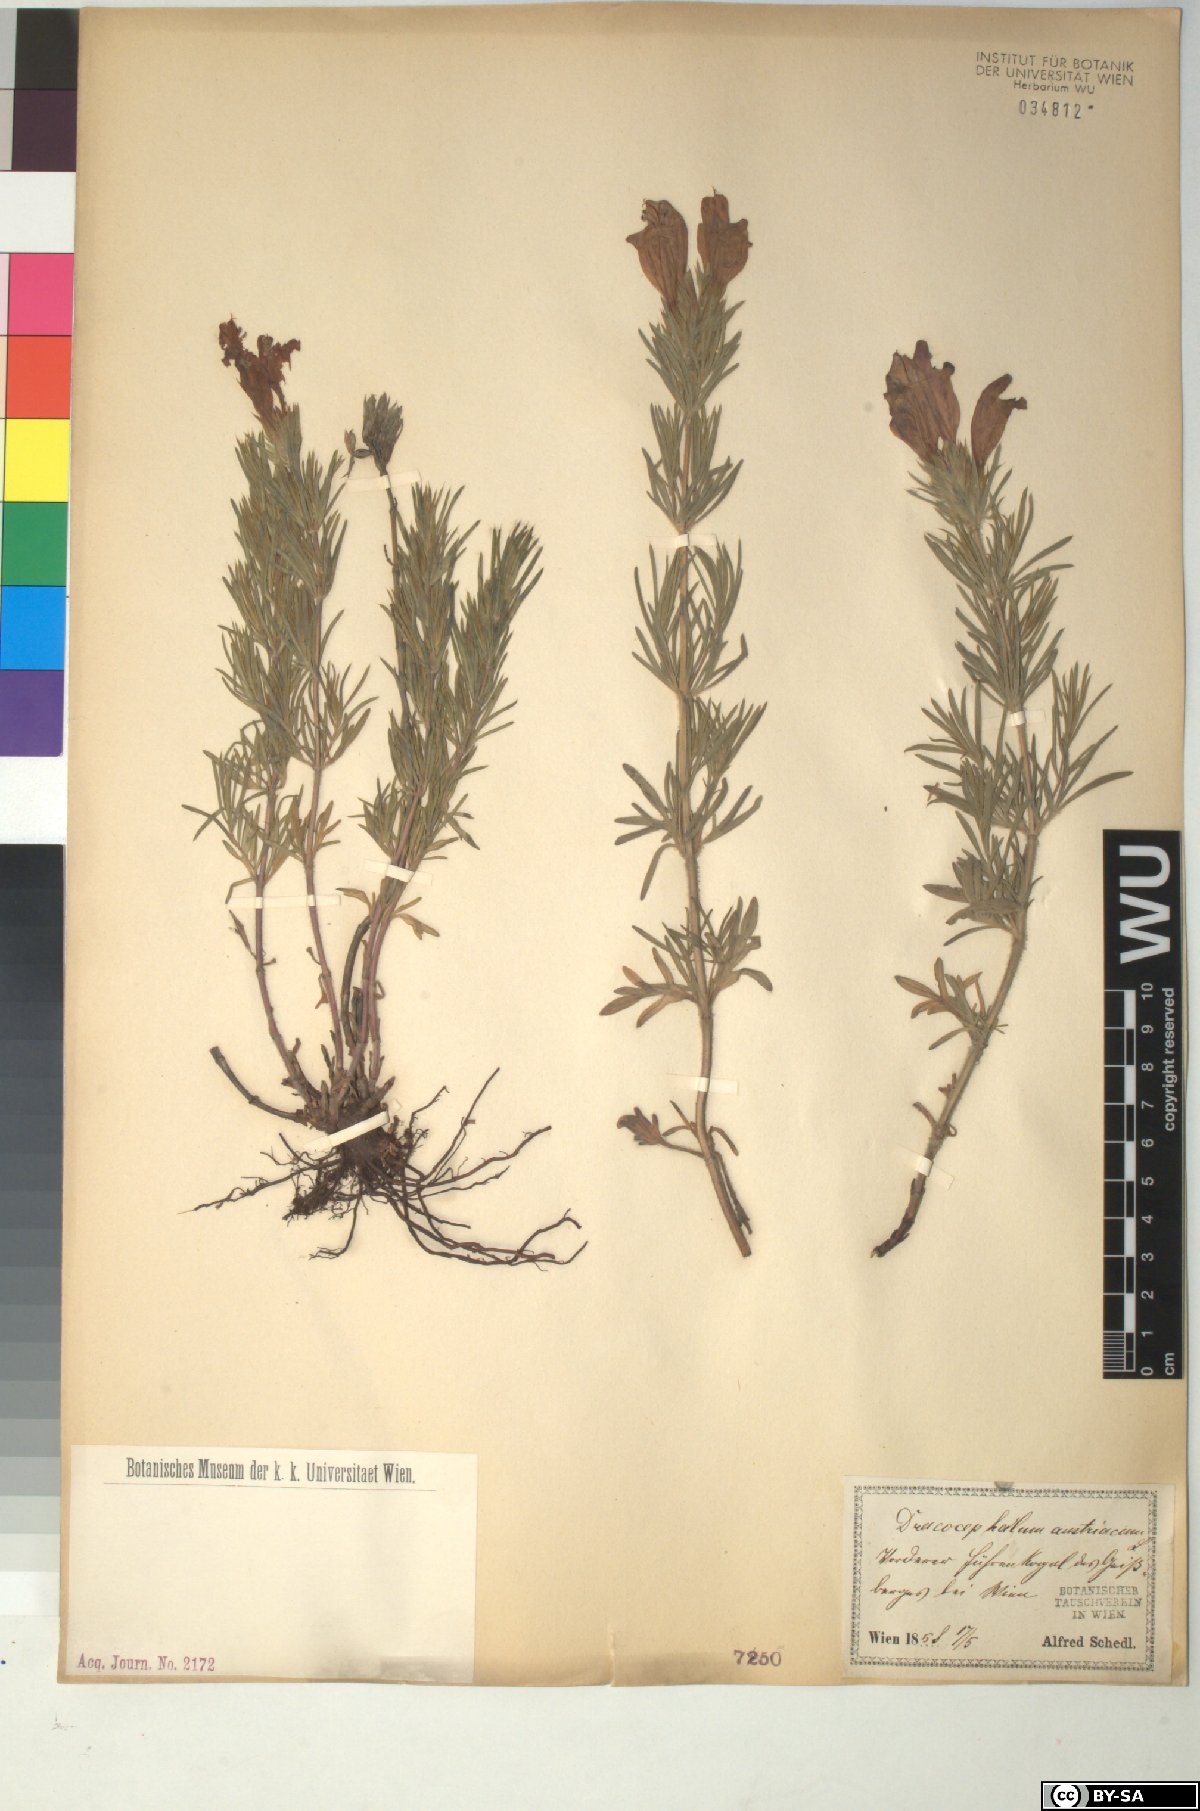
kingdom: Plantae
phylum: Tracheophyta
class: Magnoliopsida
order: Lamiales
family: Lamiaceae
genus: Dracocephalum
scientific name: Dracocephalum austriacum
